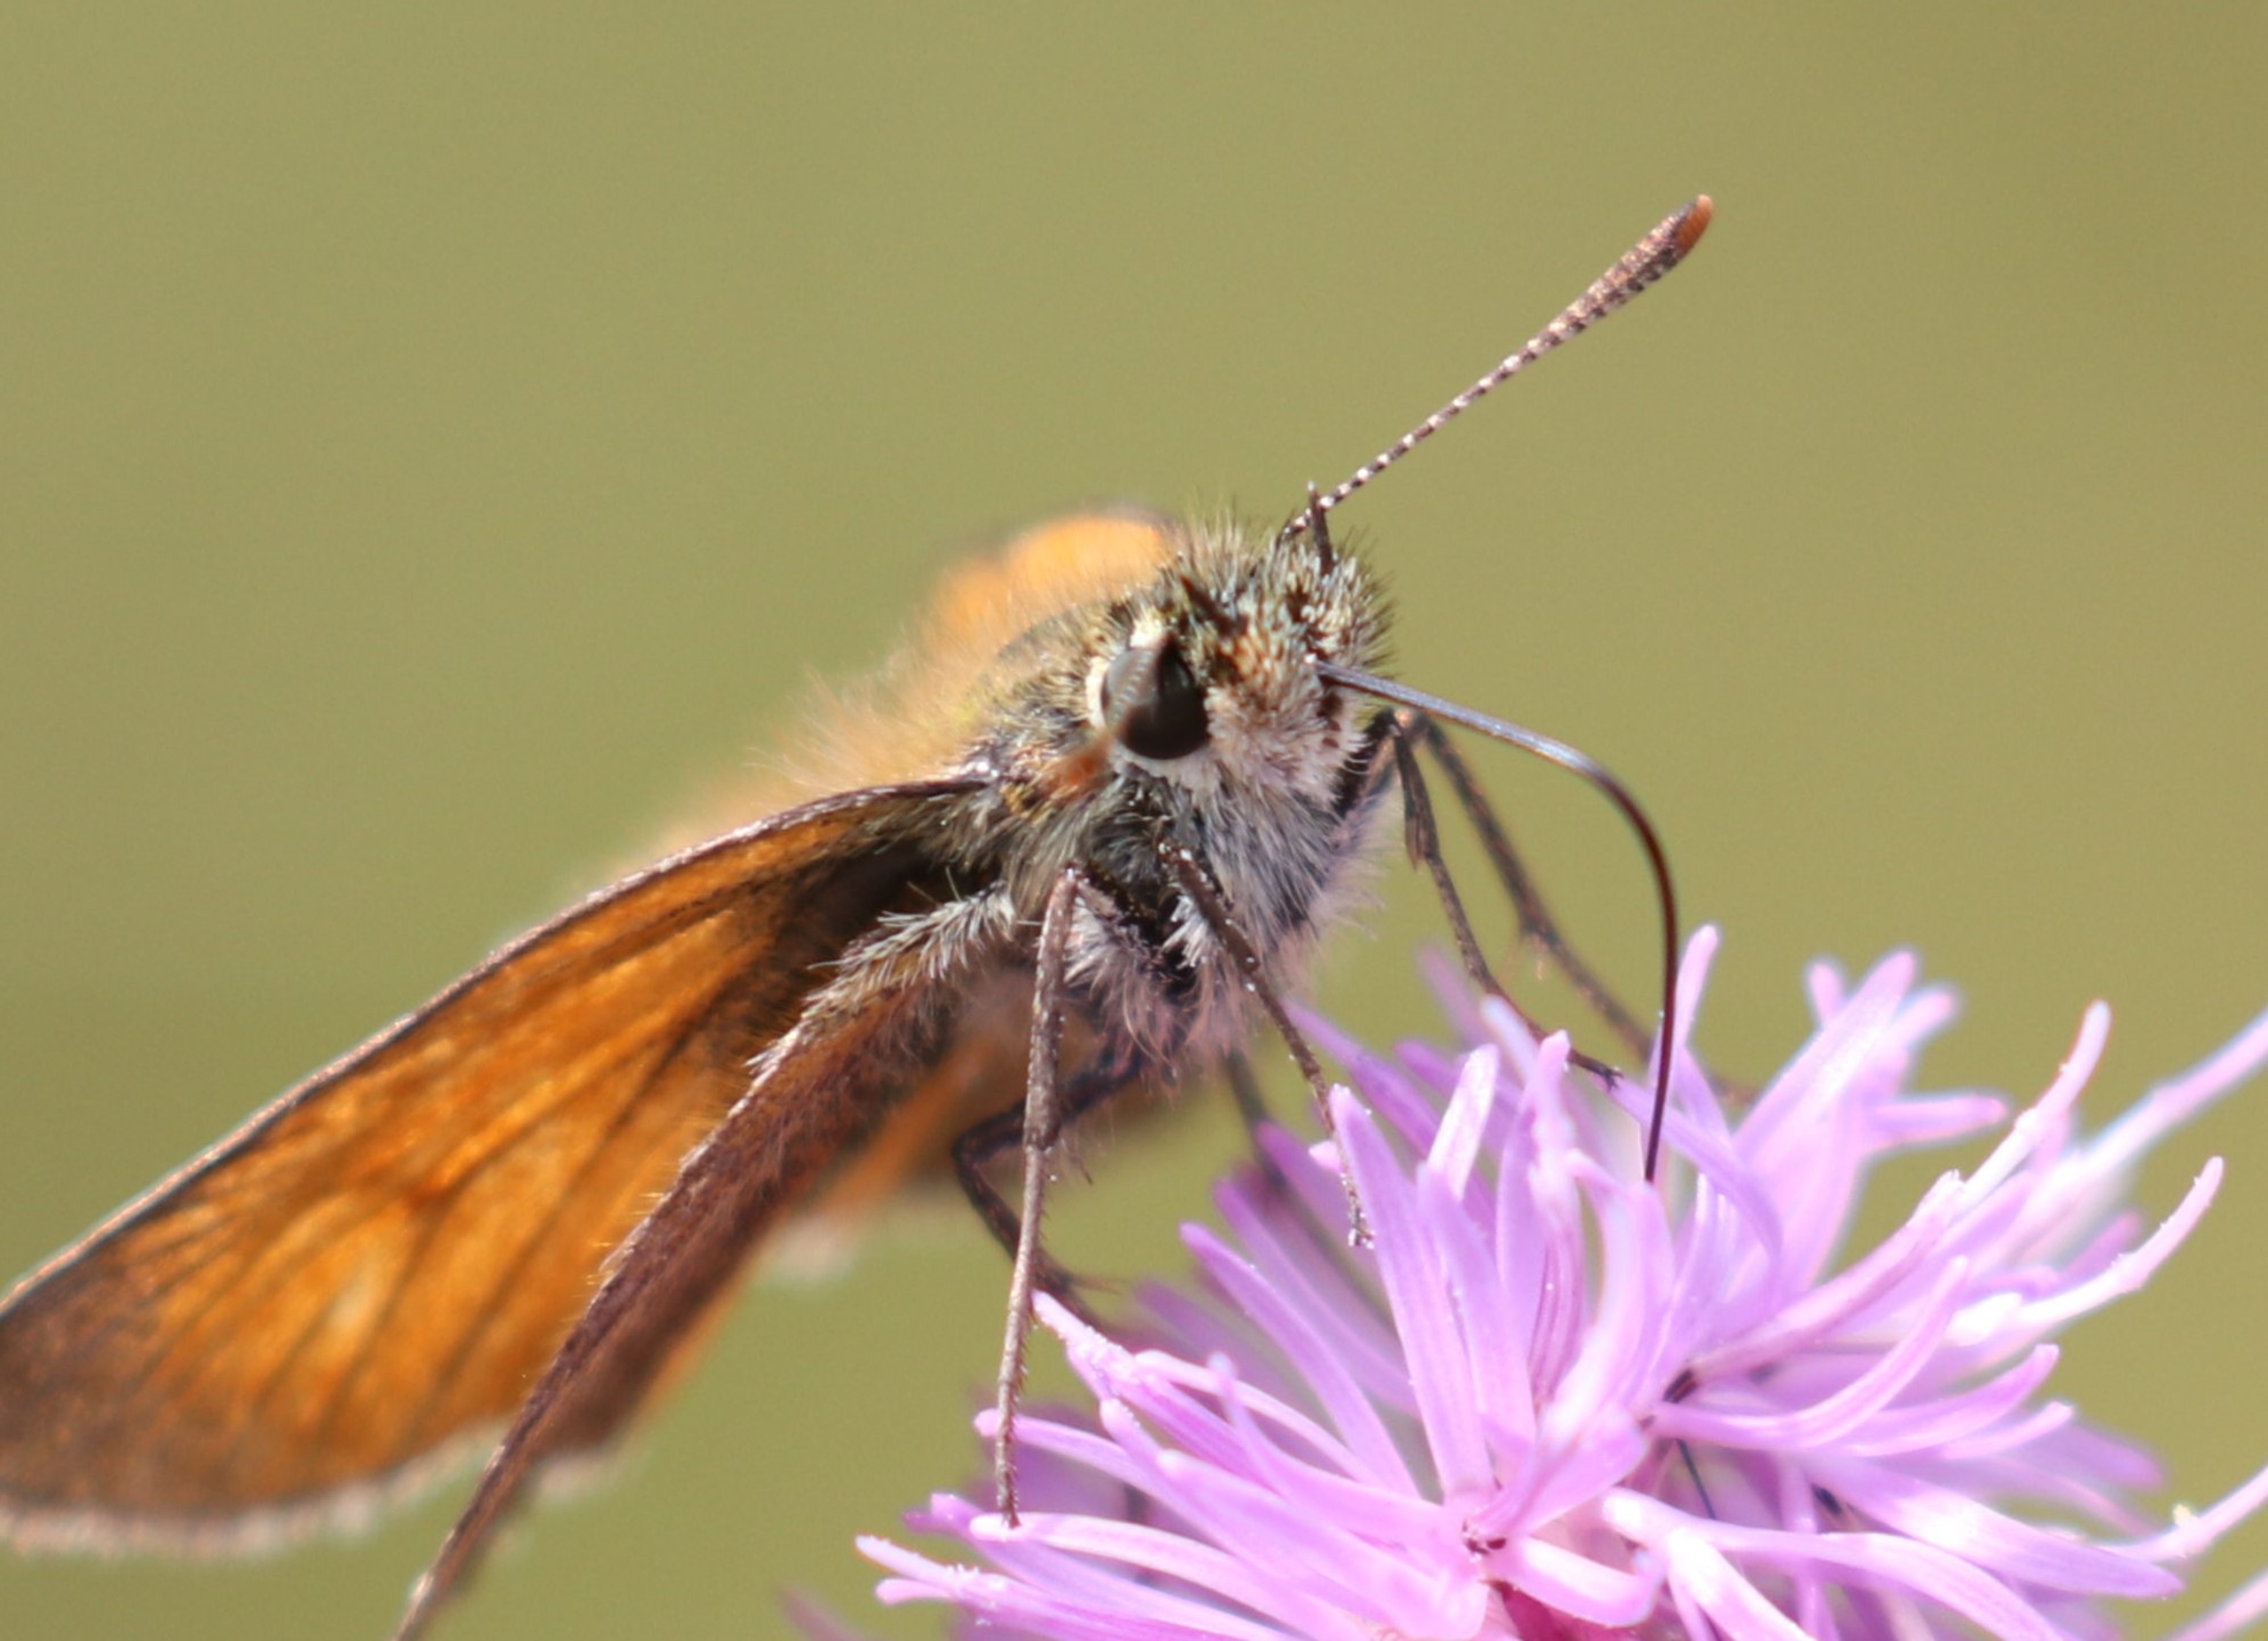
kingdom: Animalia
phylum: Arthropoda
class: Insecta
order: Lepidoptera
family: Hesperiidae
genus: Thymelicus
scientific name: Thymelicus sylvestris
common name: Skråstregbredpande
